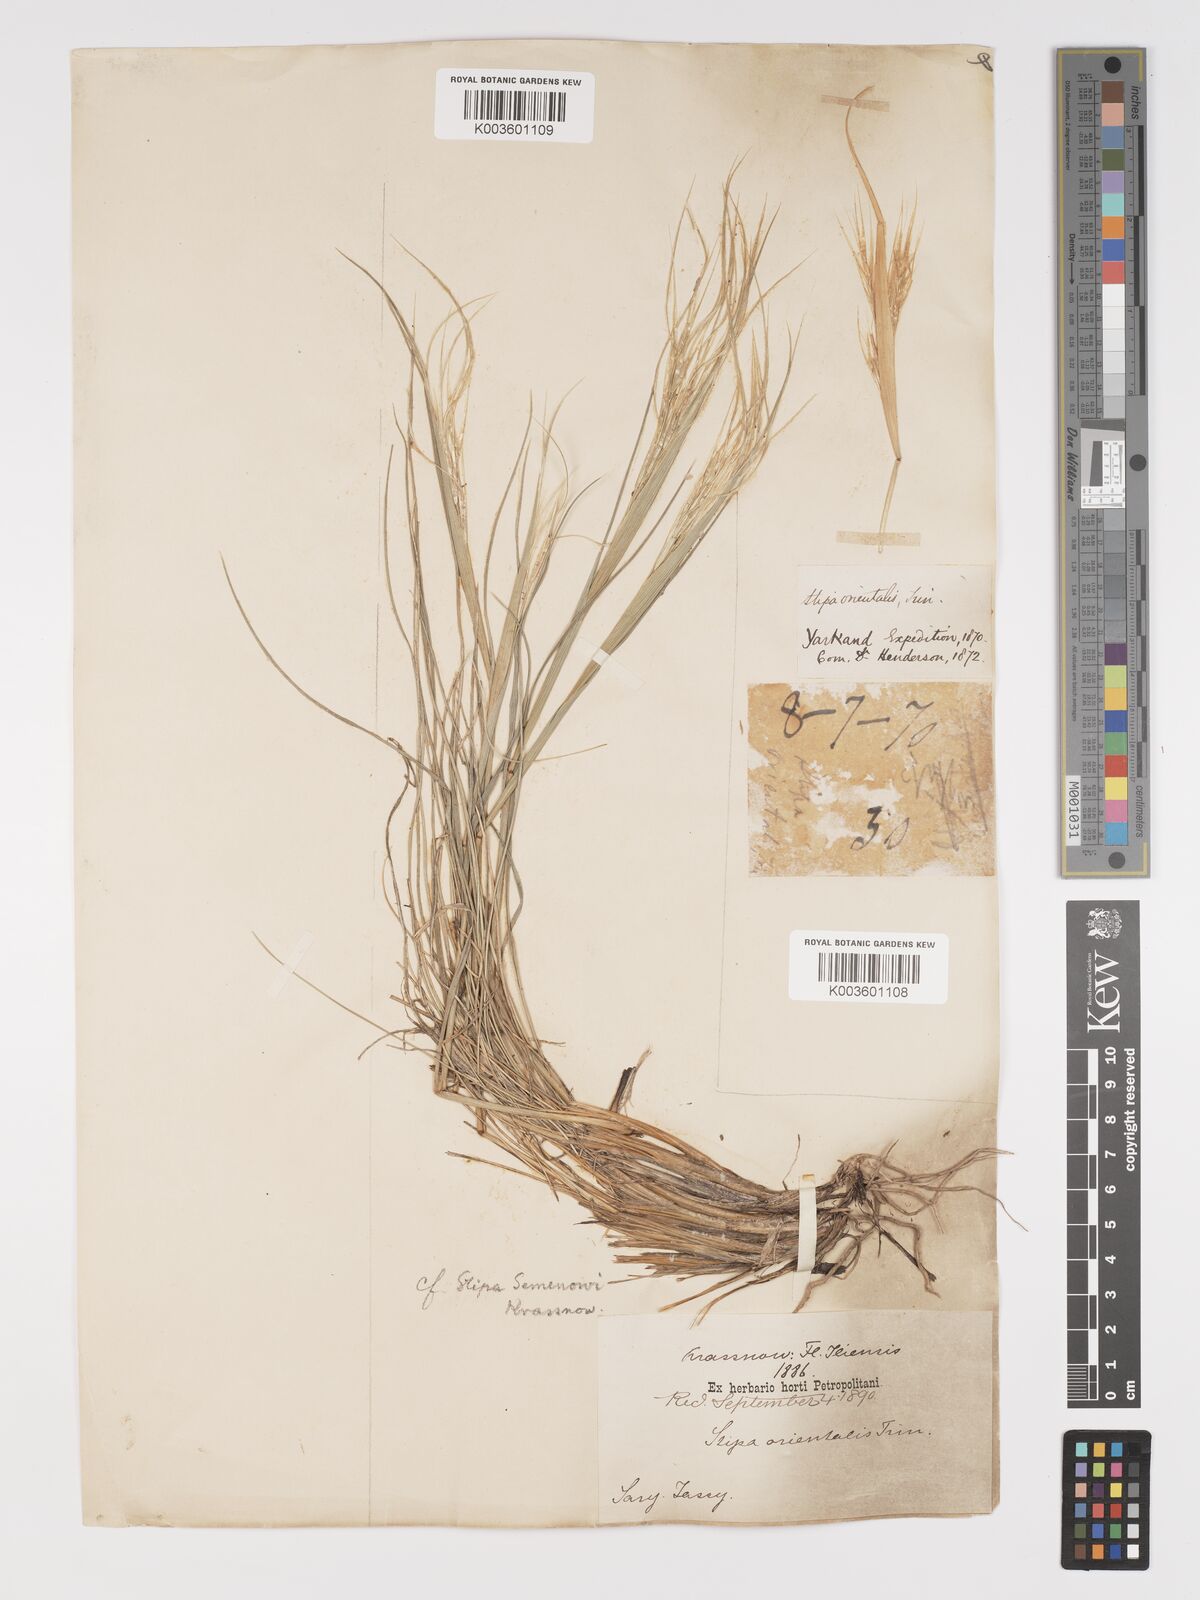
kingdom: Plantae
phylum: Tracheophyta
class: Liliopsida
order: Poales
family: Poaceae
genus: Stipa
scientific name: Stipa orientalis
